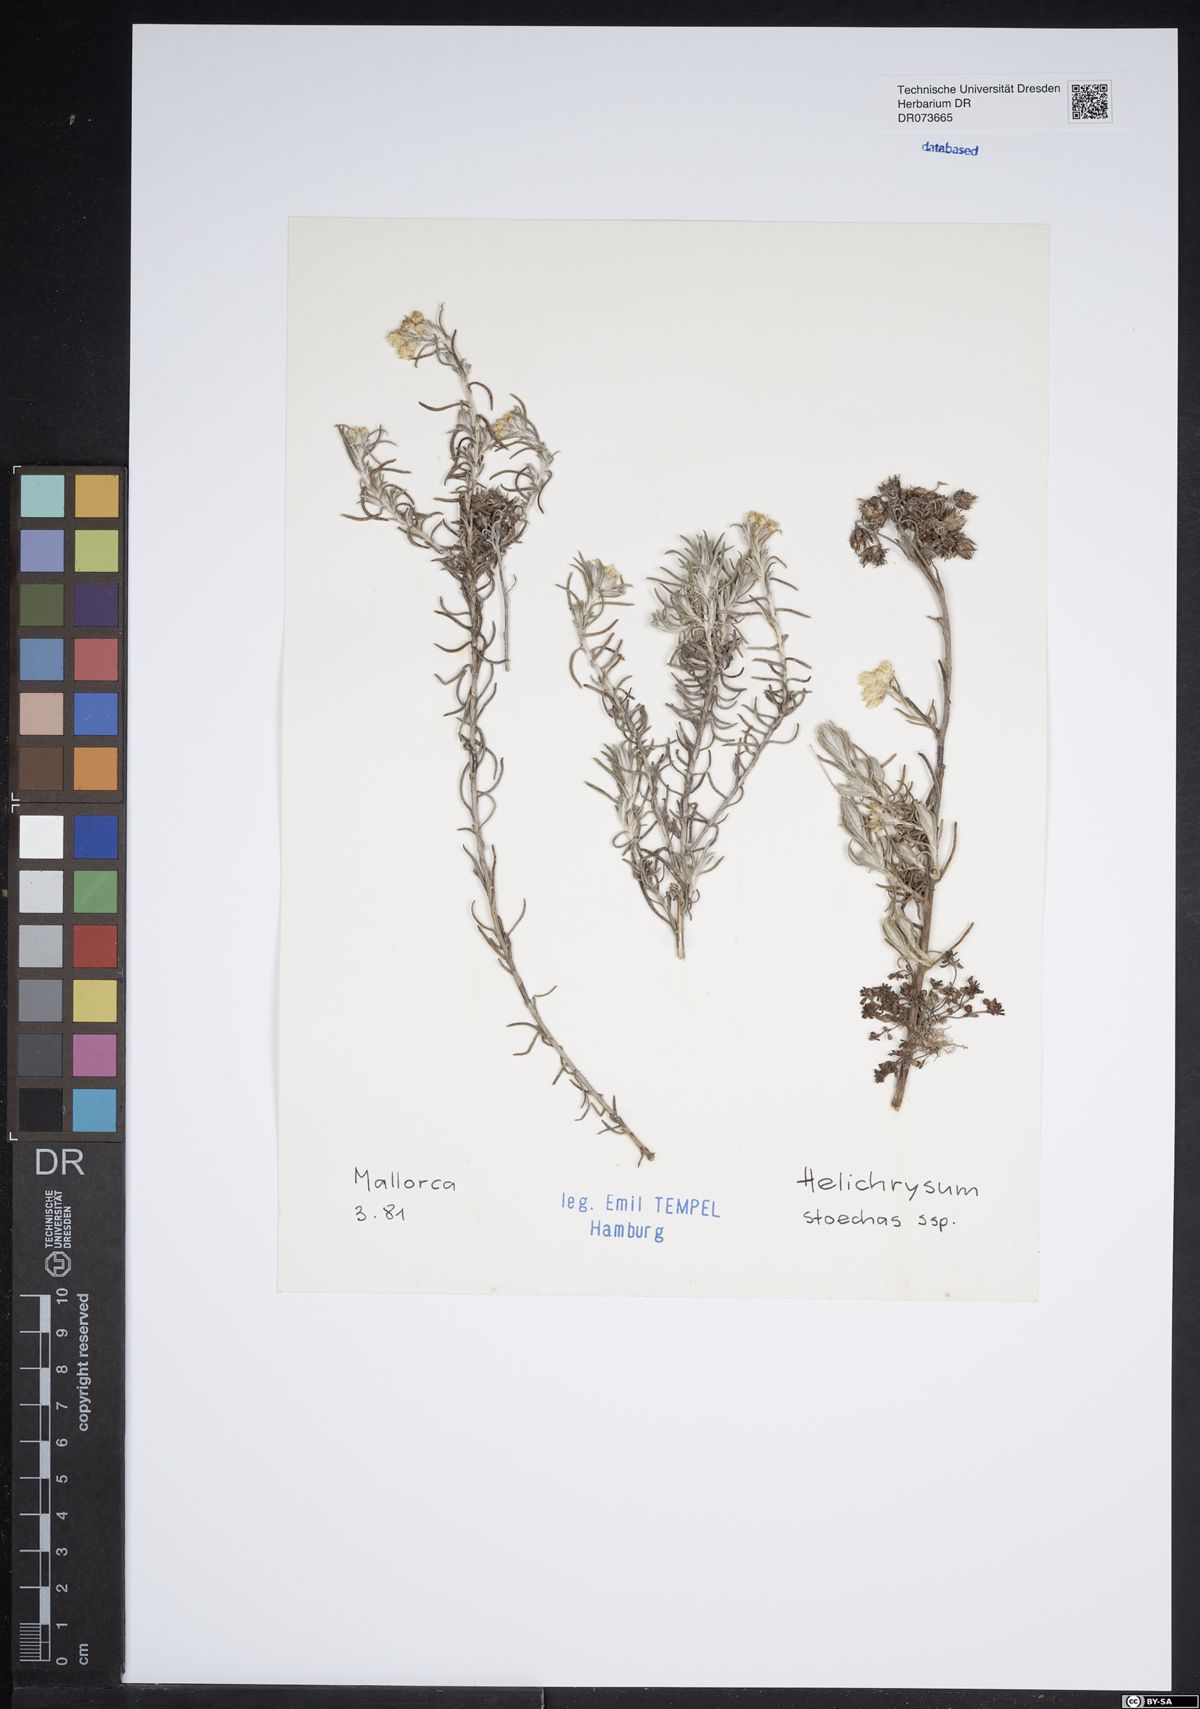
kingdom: Plantae
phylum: Tracheophyta
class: Magnoliopsida
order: Asterales
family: Asteraceae
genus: Helichrysum
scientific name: Helichrysum stoechas
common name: Goldilocks
